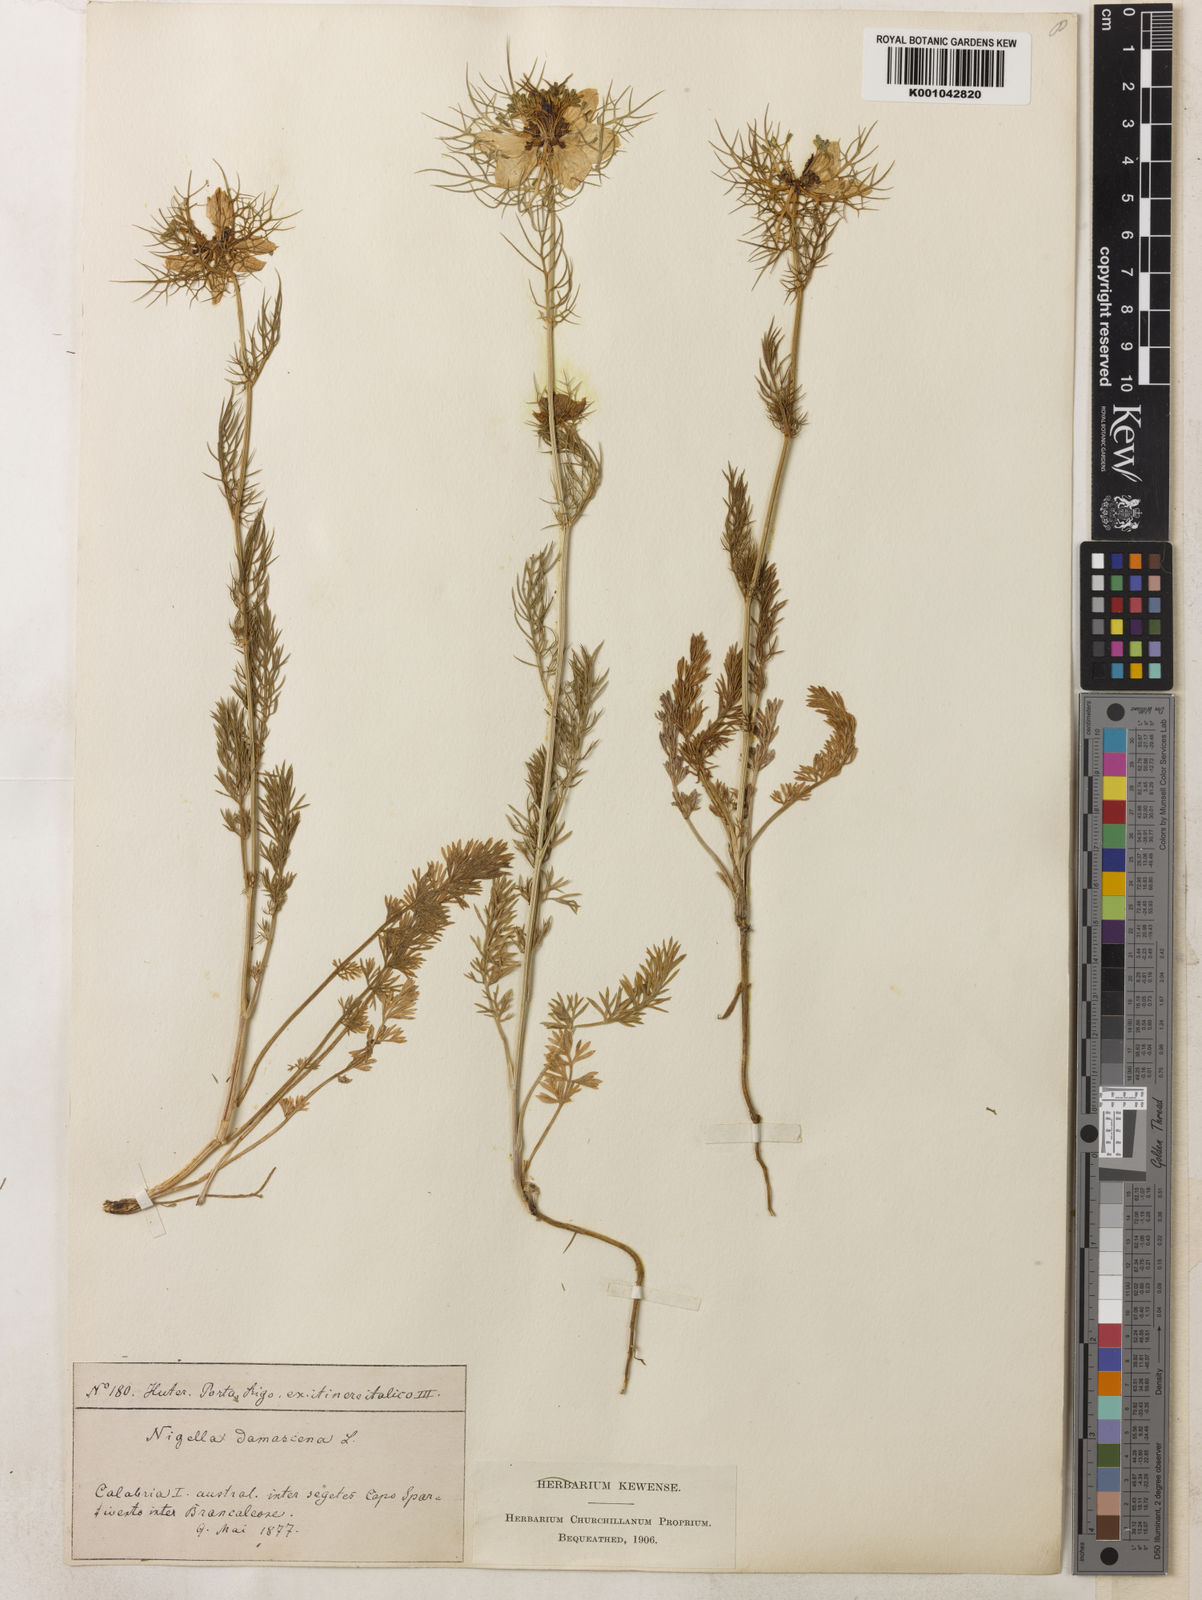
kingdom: Plantae
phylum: Tracheophyta
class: Magnoliopsida
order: Ranunculales
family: Ranunculaceae
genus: Nigella
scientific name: Nigella damascena
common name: Love-in-a-mist
